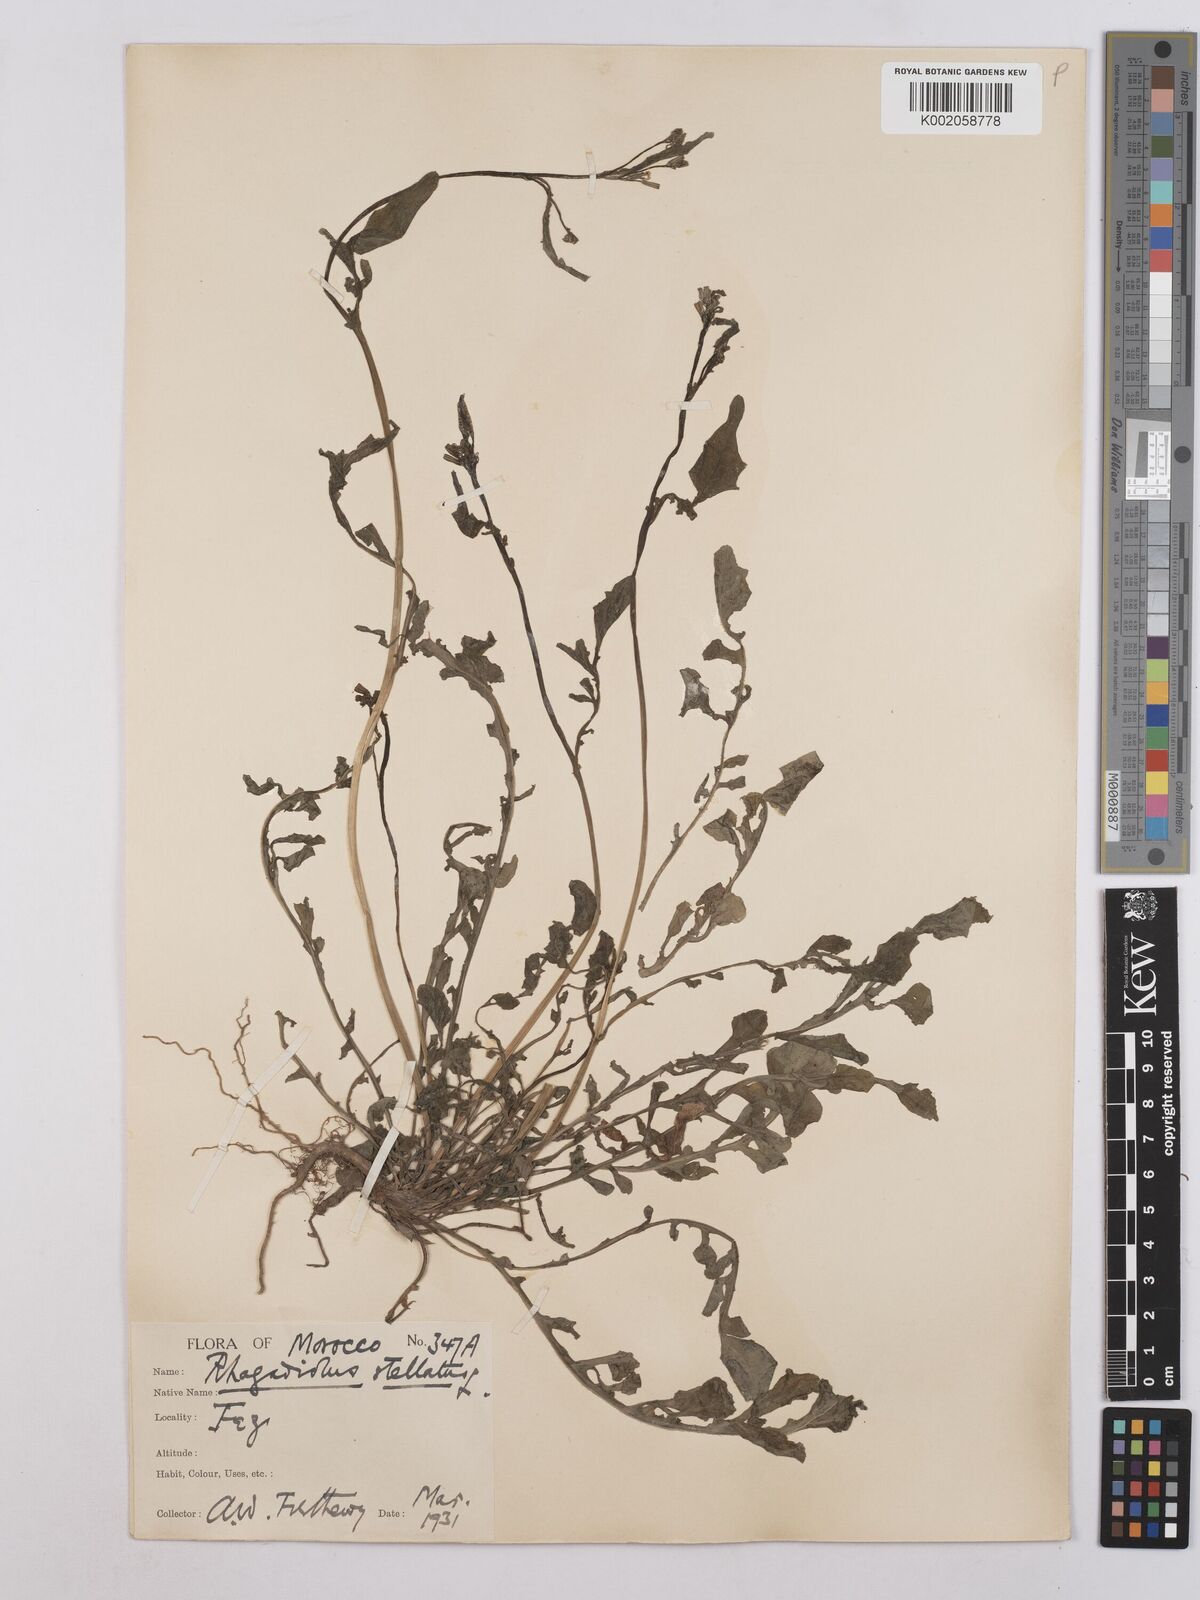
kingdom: Plantae
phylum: Tracheophyta
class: Magnoliopsida
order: Asterales
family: Asteraceae
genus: Rhagadiolus
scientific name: Rhagadiolus stellatus
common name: Star hawkbit
